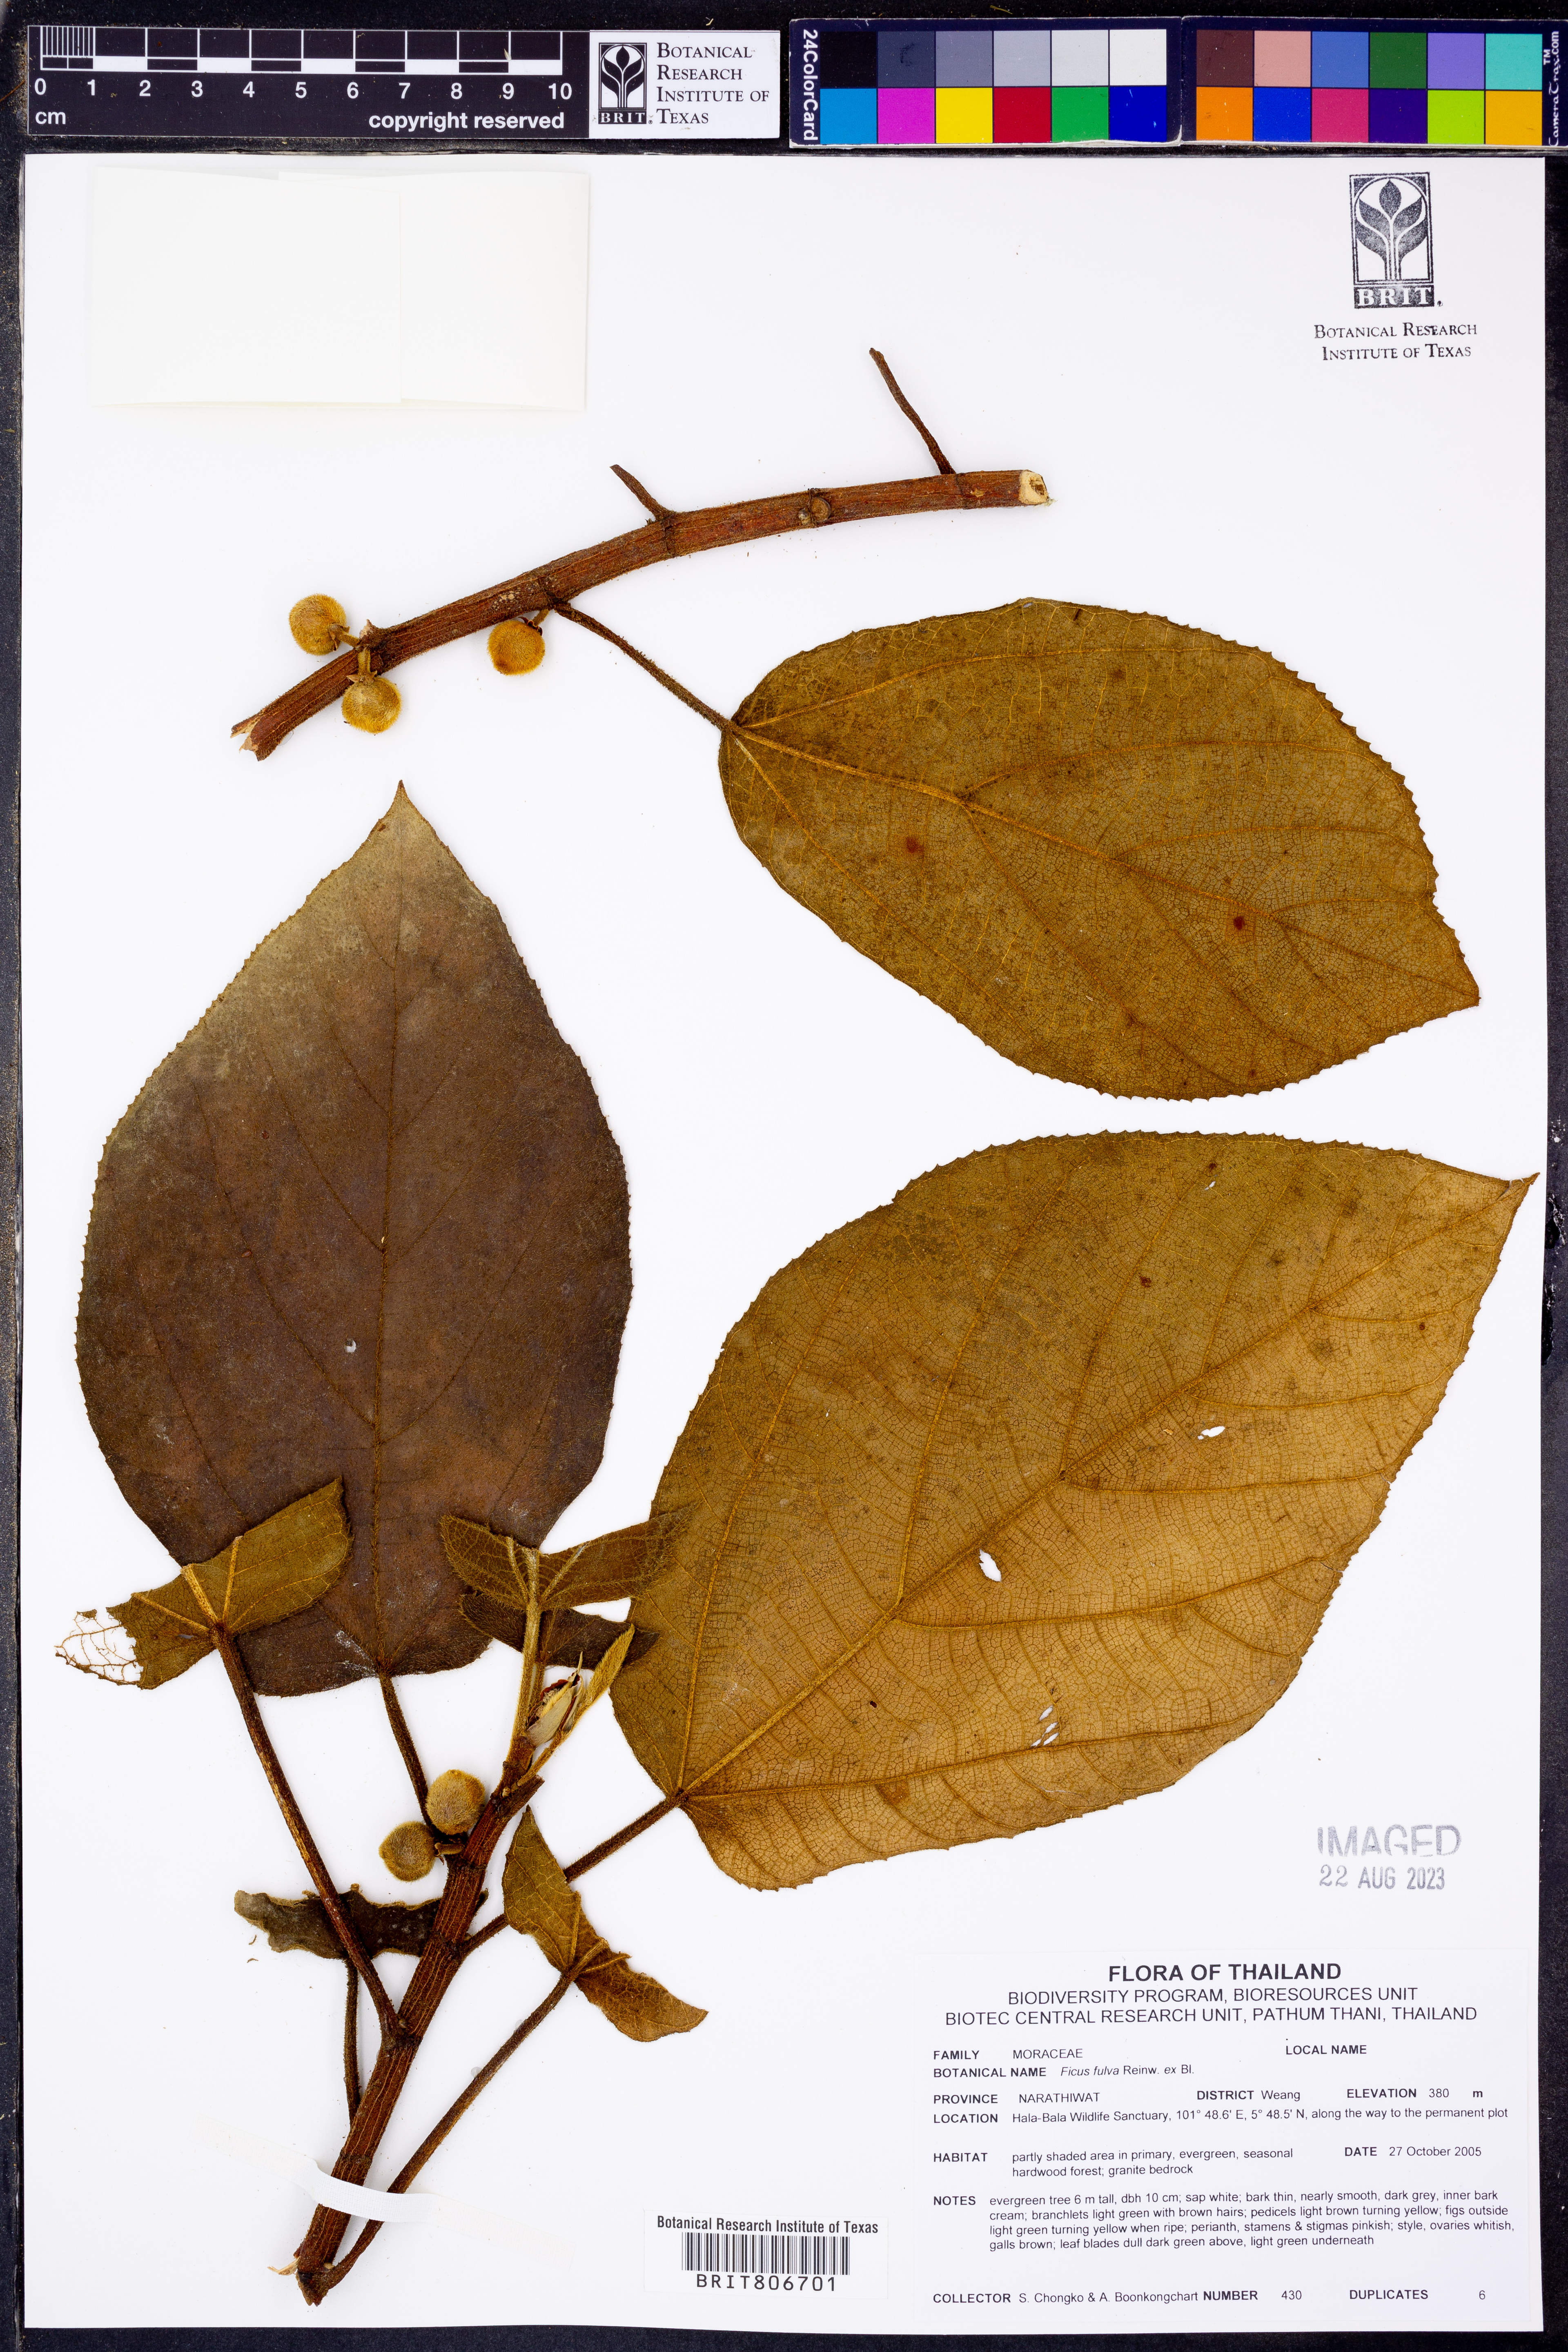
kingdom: Plantae
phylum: Tracheophyta
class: Magnoliopsida
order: Rosales
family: Moraceae
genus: Ficus
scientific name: Ficus fulva
